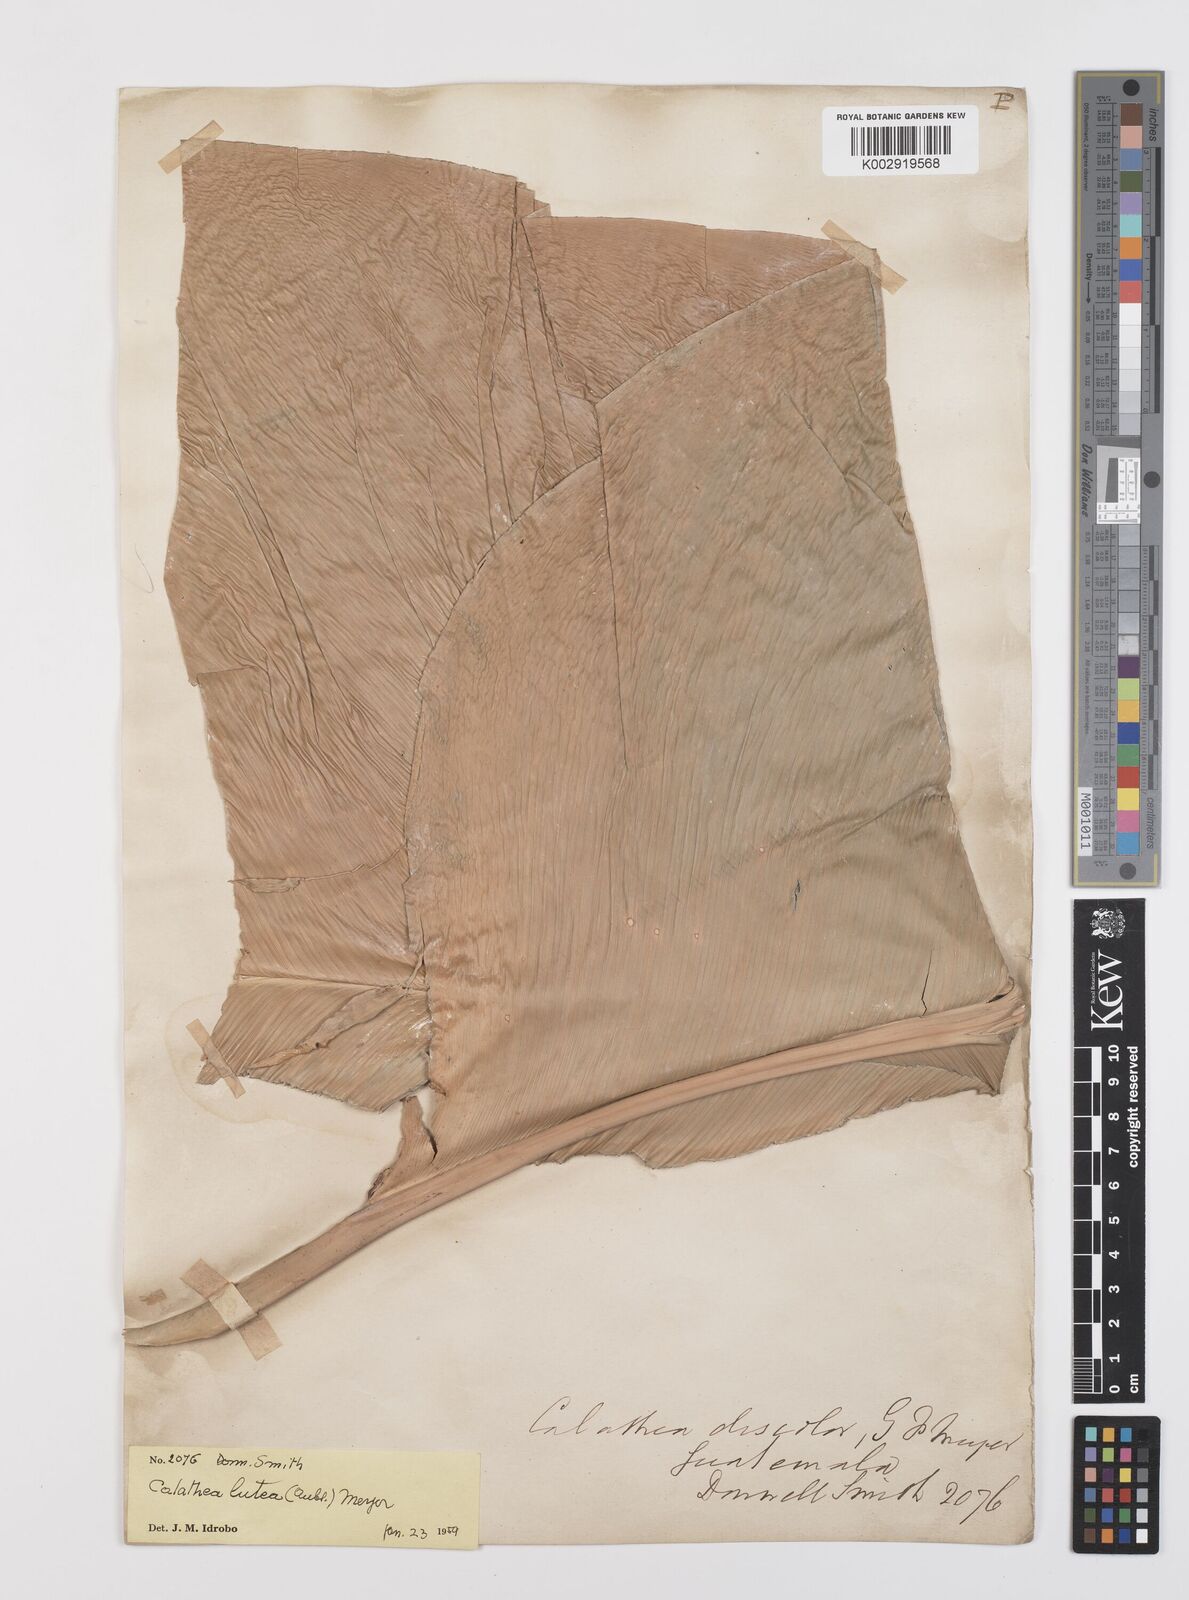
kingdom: Plantae
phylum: Tracheophyta
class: Liliopsida
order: Zingiberales
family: Marantaceae
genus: Calathea
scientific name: Calathea lutea
